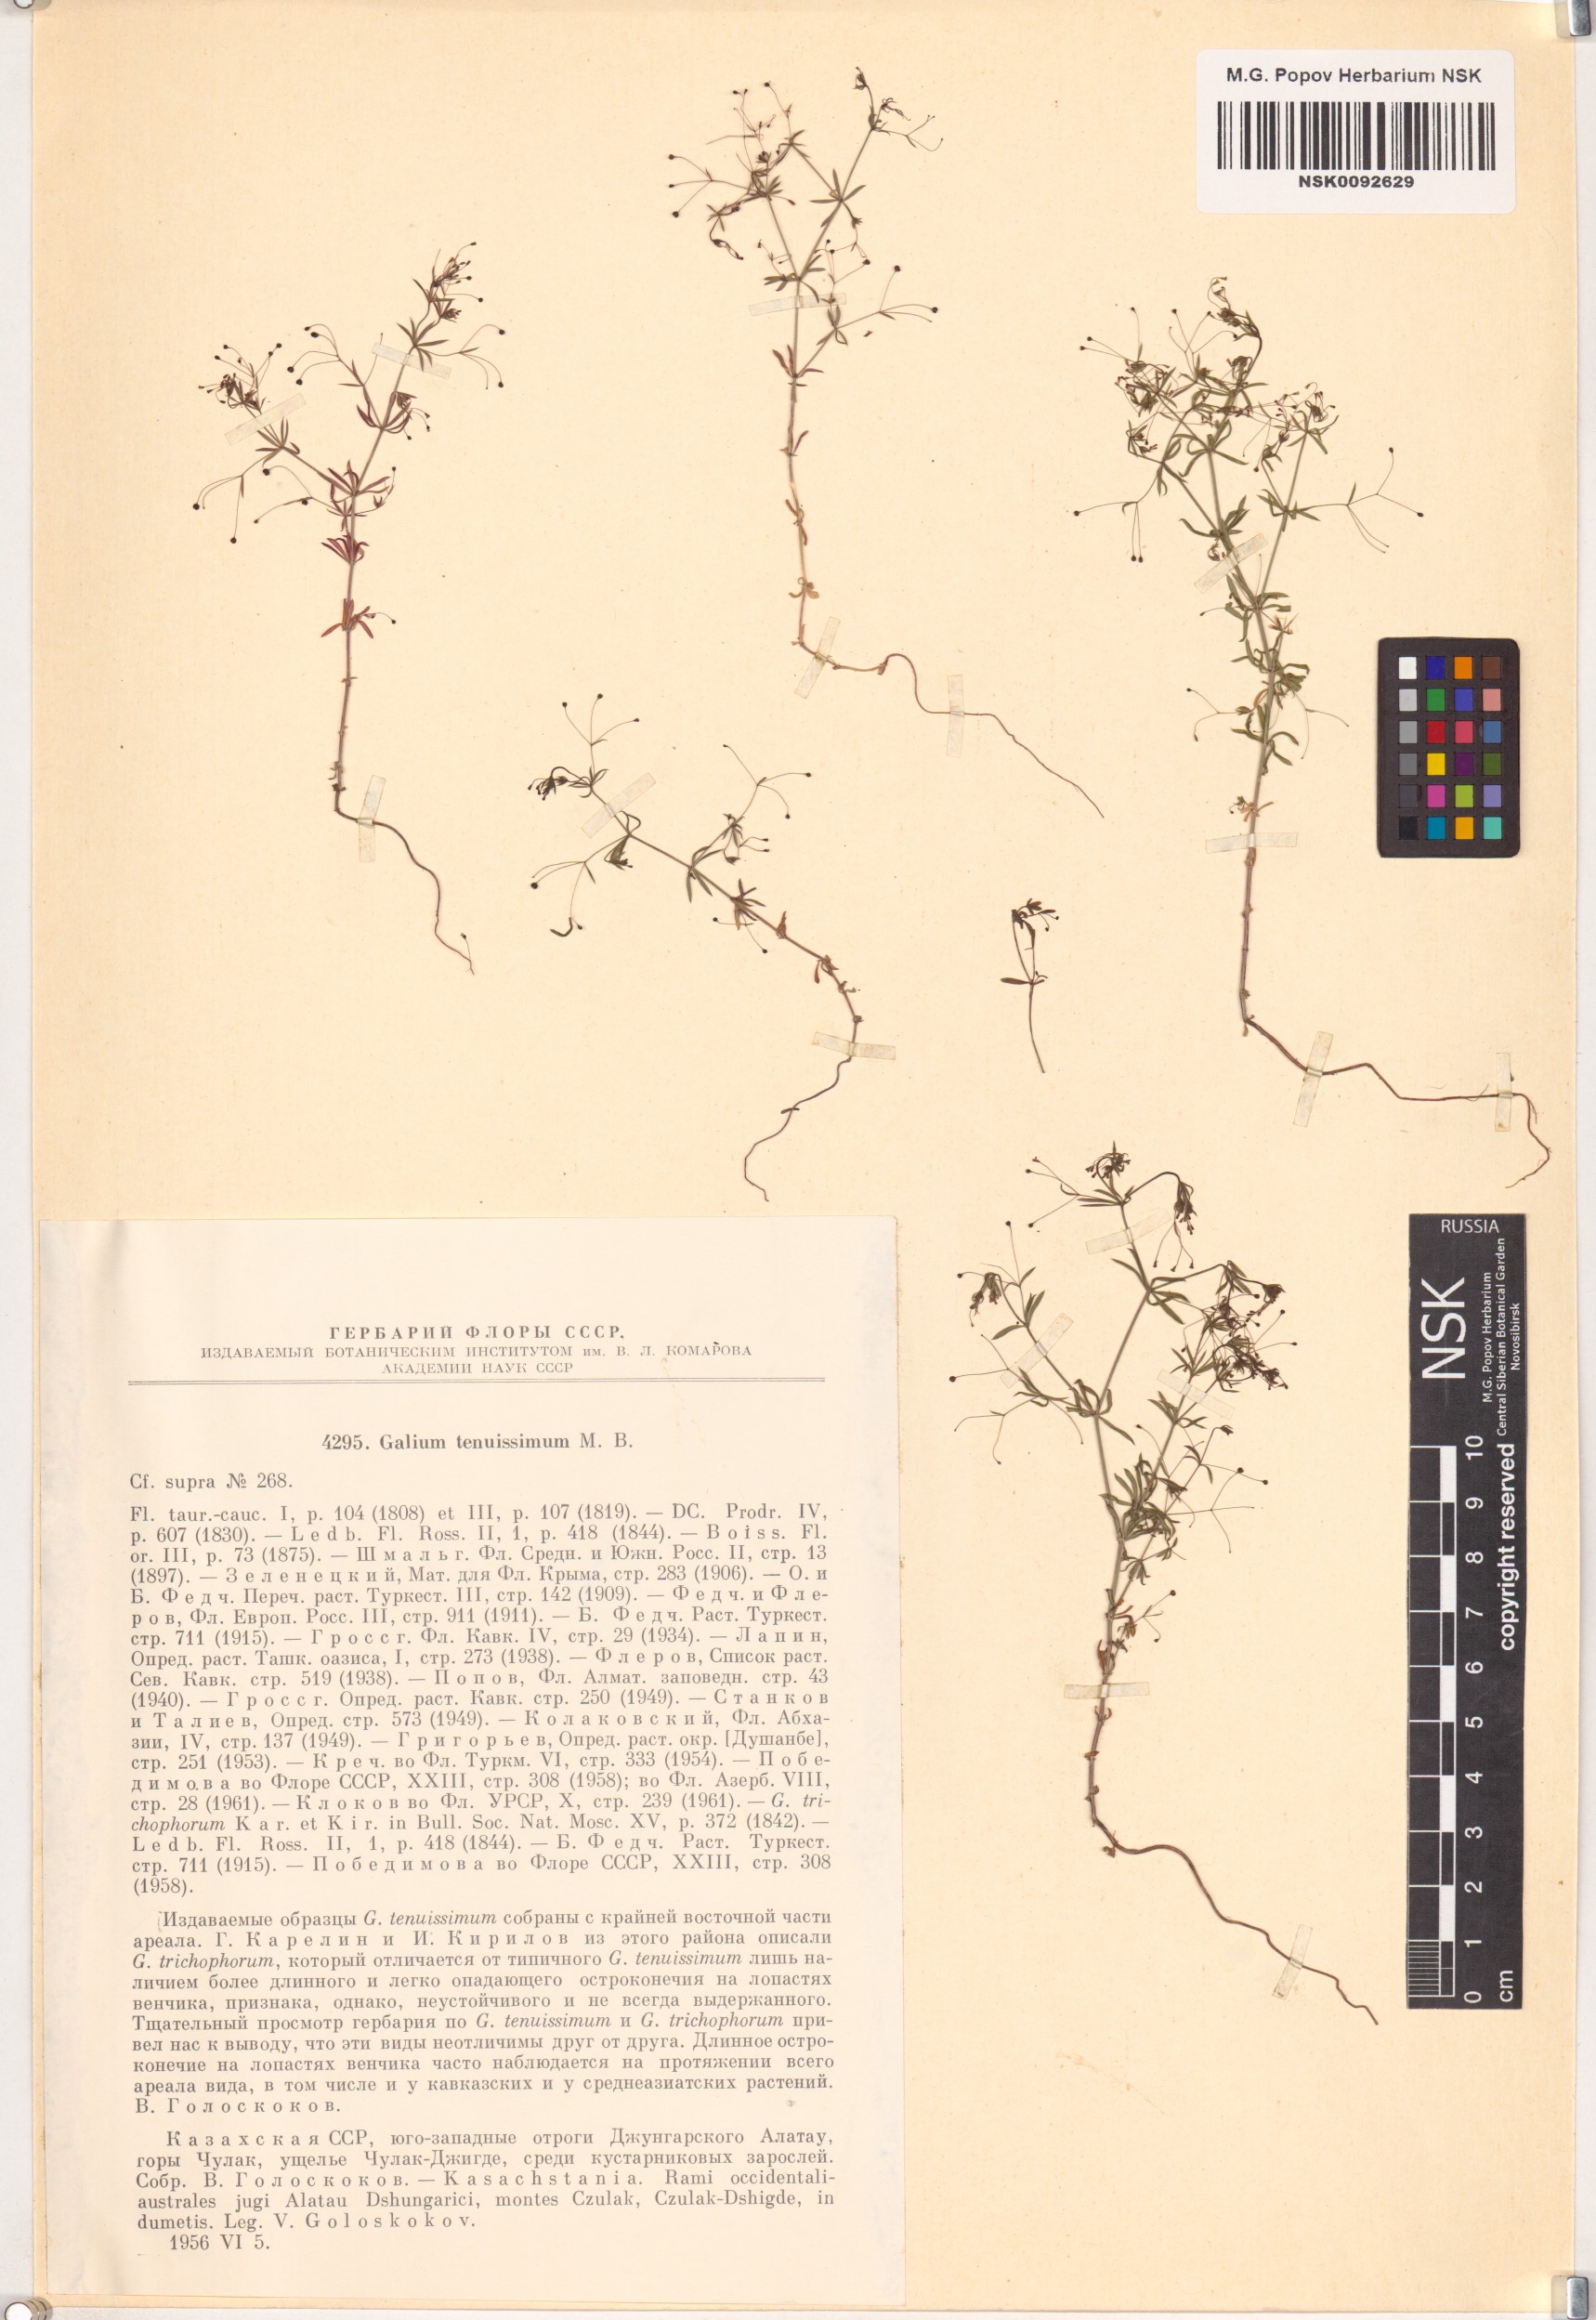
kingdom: Plantae
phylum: Tracheophyta
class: Magnoliopsida
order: Gentianales
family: Rubiaceae
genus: Galium
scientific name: Galium tenuissimum
